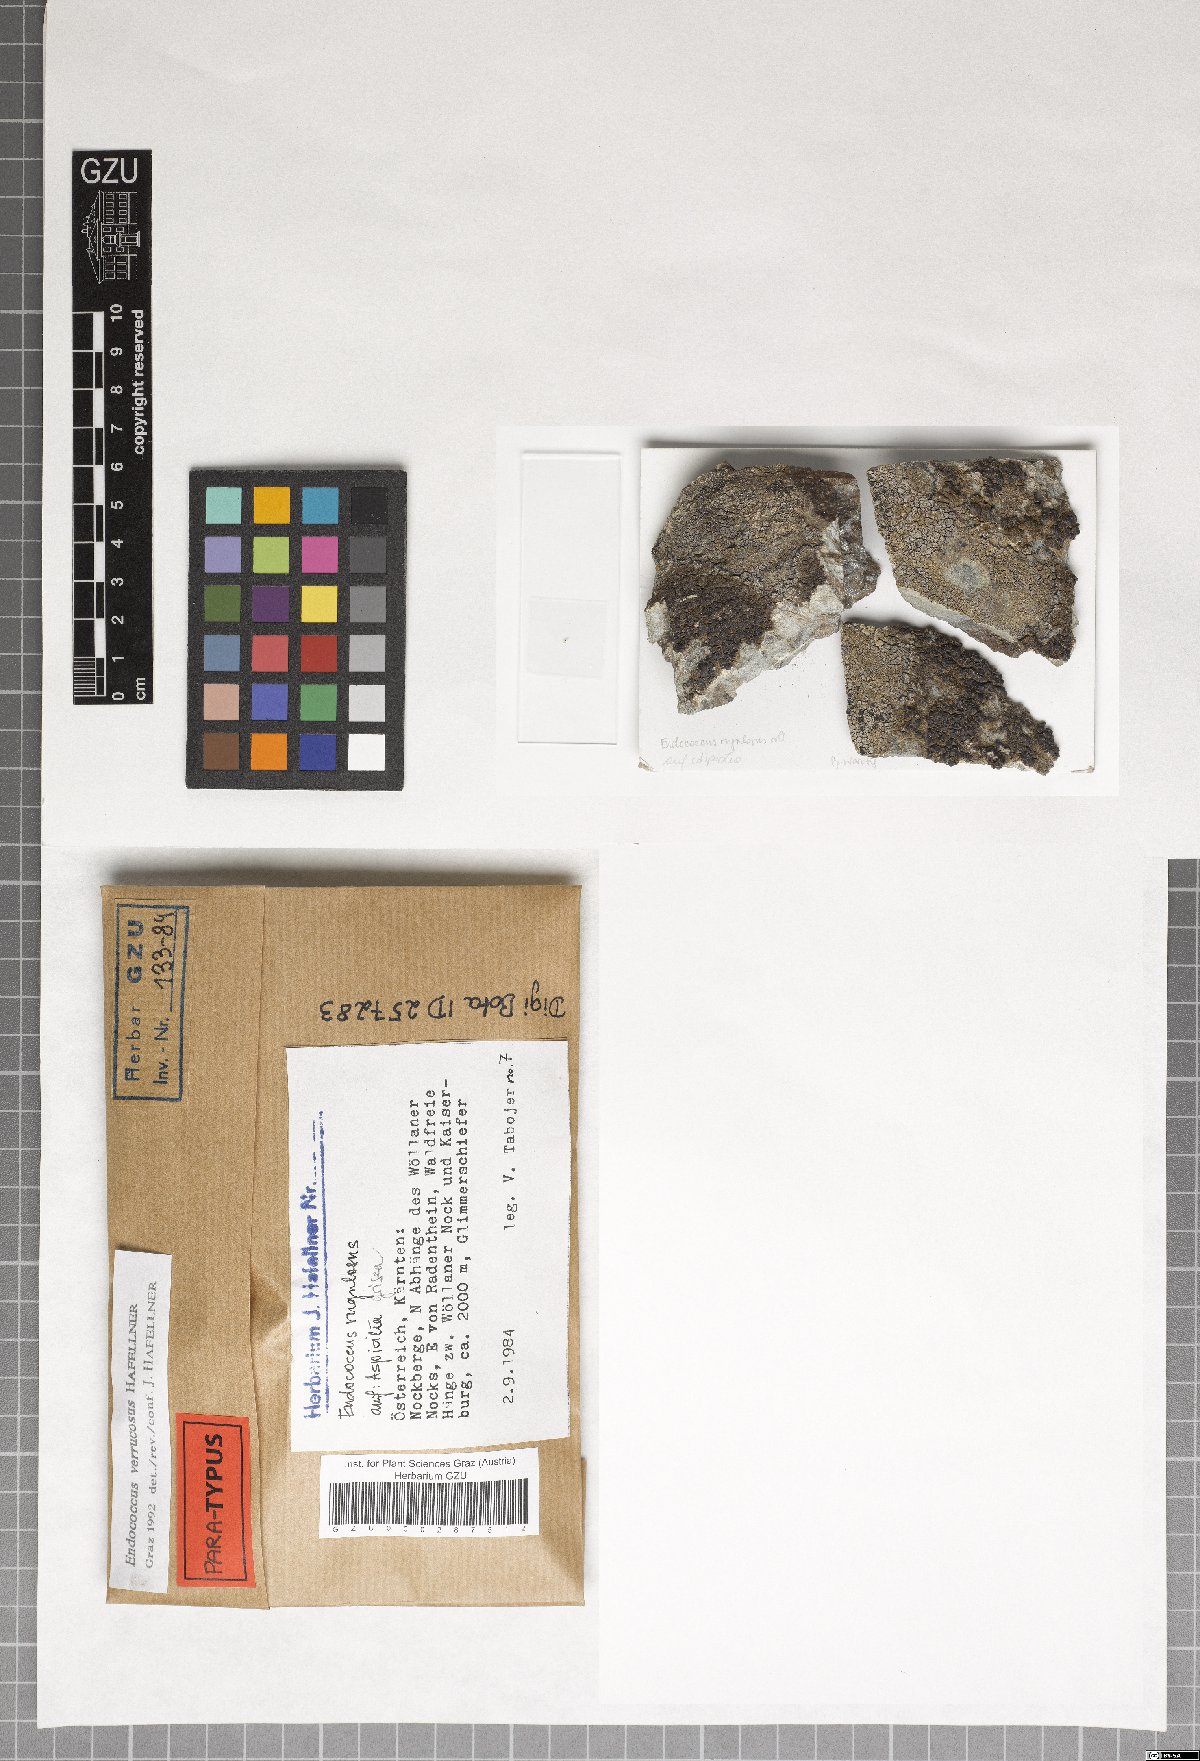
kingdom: Fungi
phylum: Ascomycota
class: Dothideomycetes
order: Dothideales
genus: Endococcus
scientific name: Endococcus verrucosus
